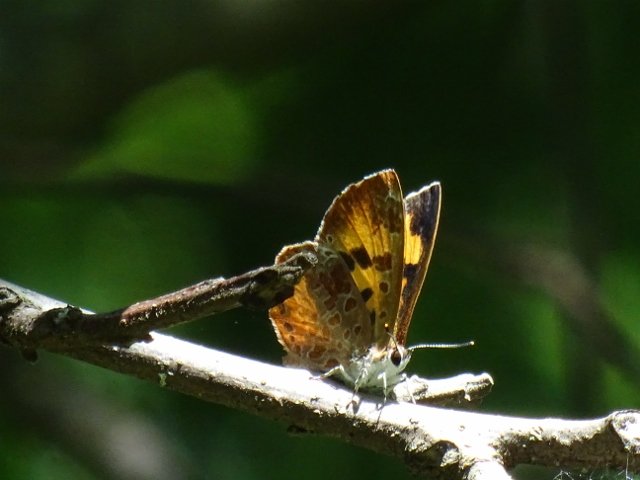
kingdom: Animalia
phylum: Arthropoda
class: Insecta
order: Lepidoptera
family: Lycaenidae
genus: Feniseca
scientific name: Feniseca tarquinius
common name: Harvester
